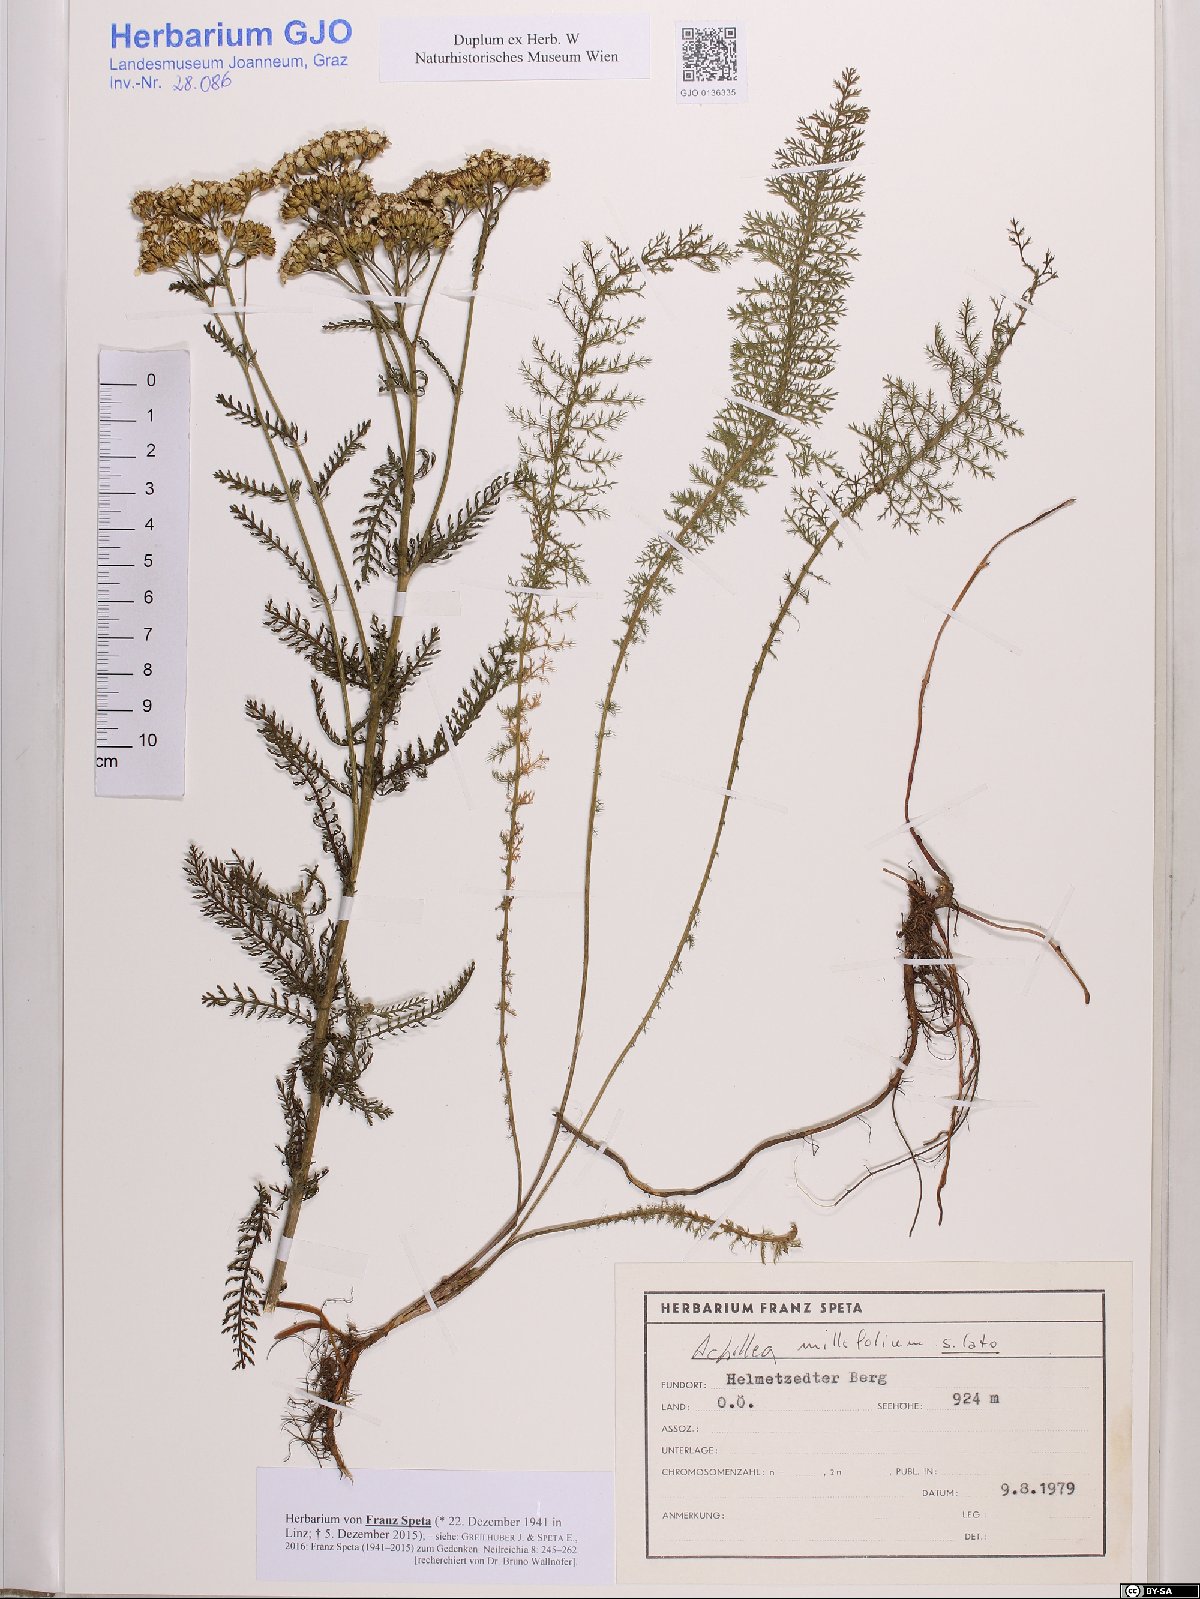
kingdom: Plantae
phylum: Tracheophyta
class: Magnoliopsida
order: Asterales
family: Asteraceae
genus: Achillea
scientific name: Achillea millefolium
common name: Yarrow
